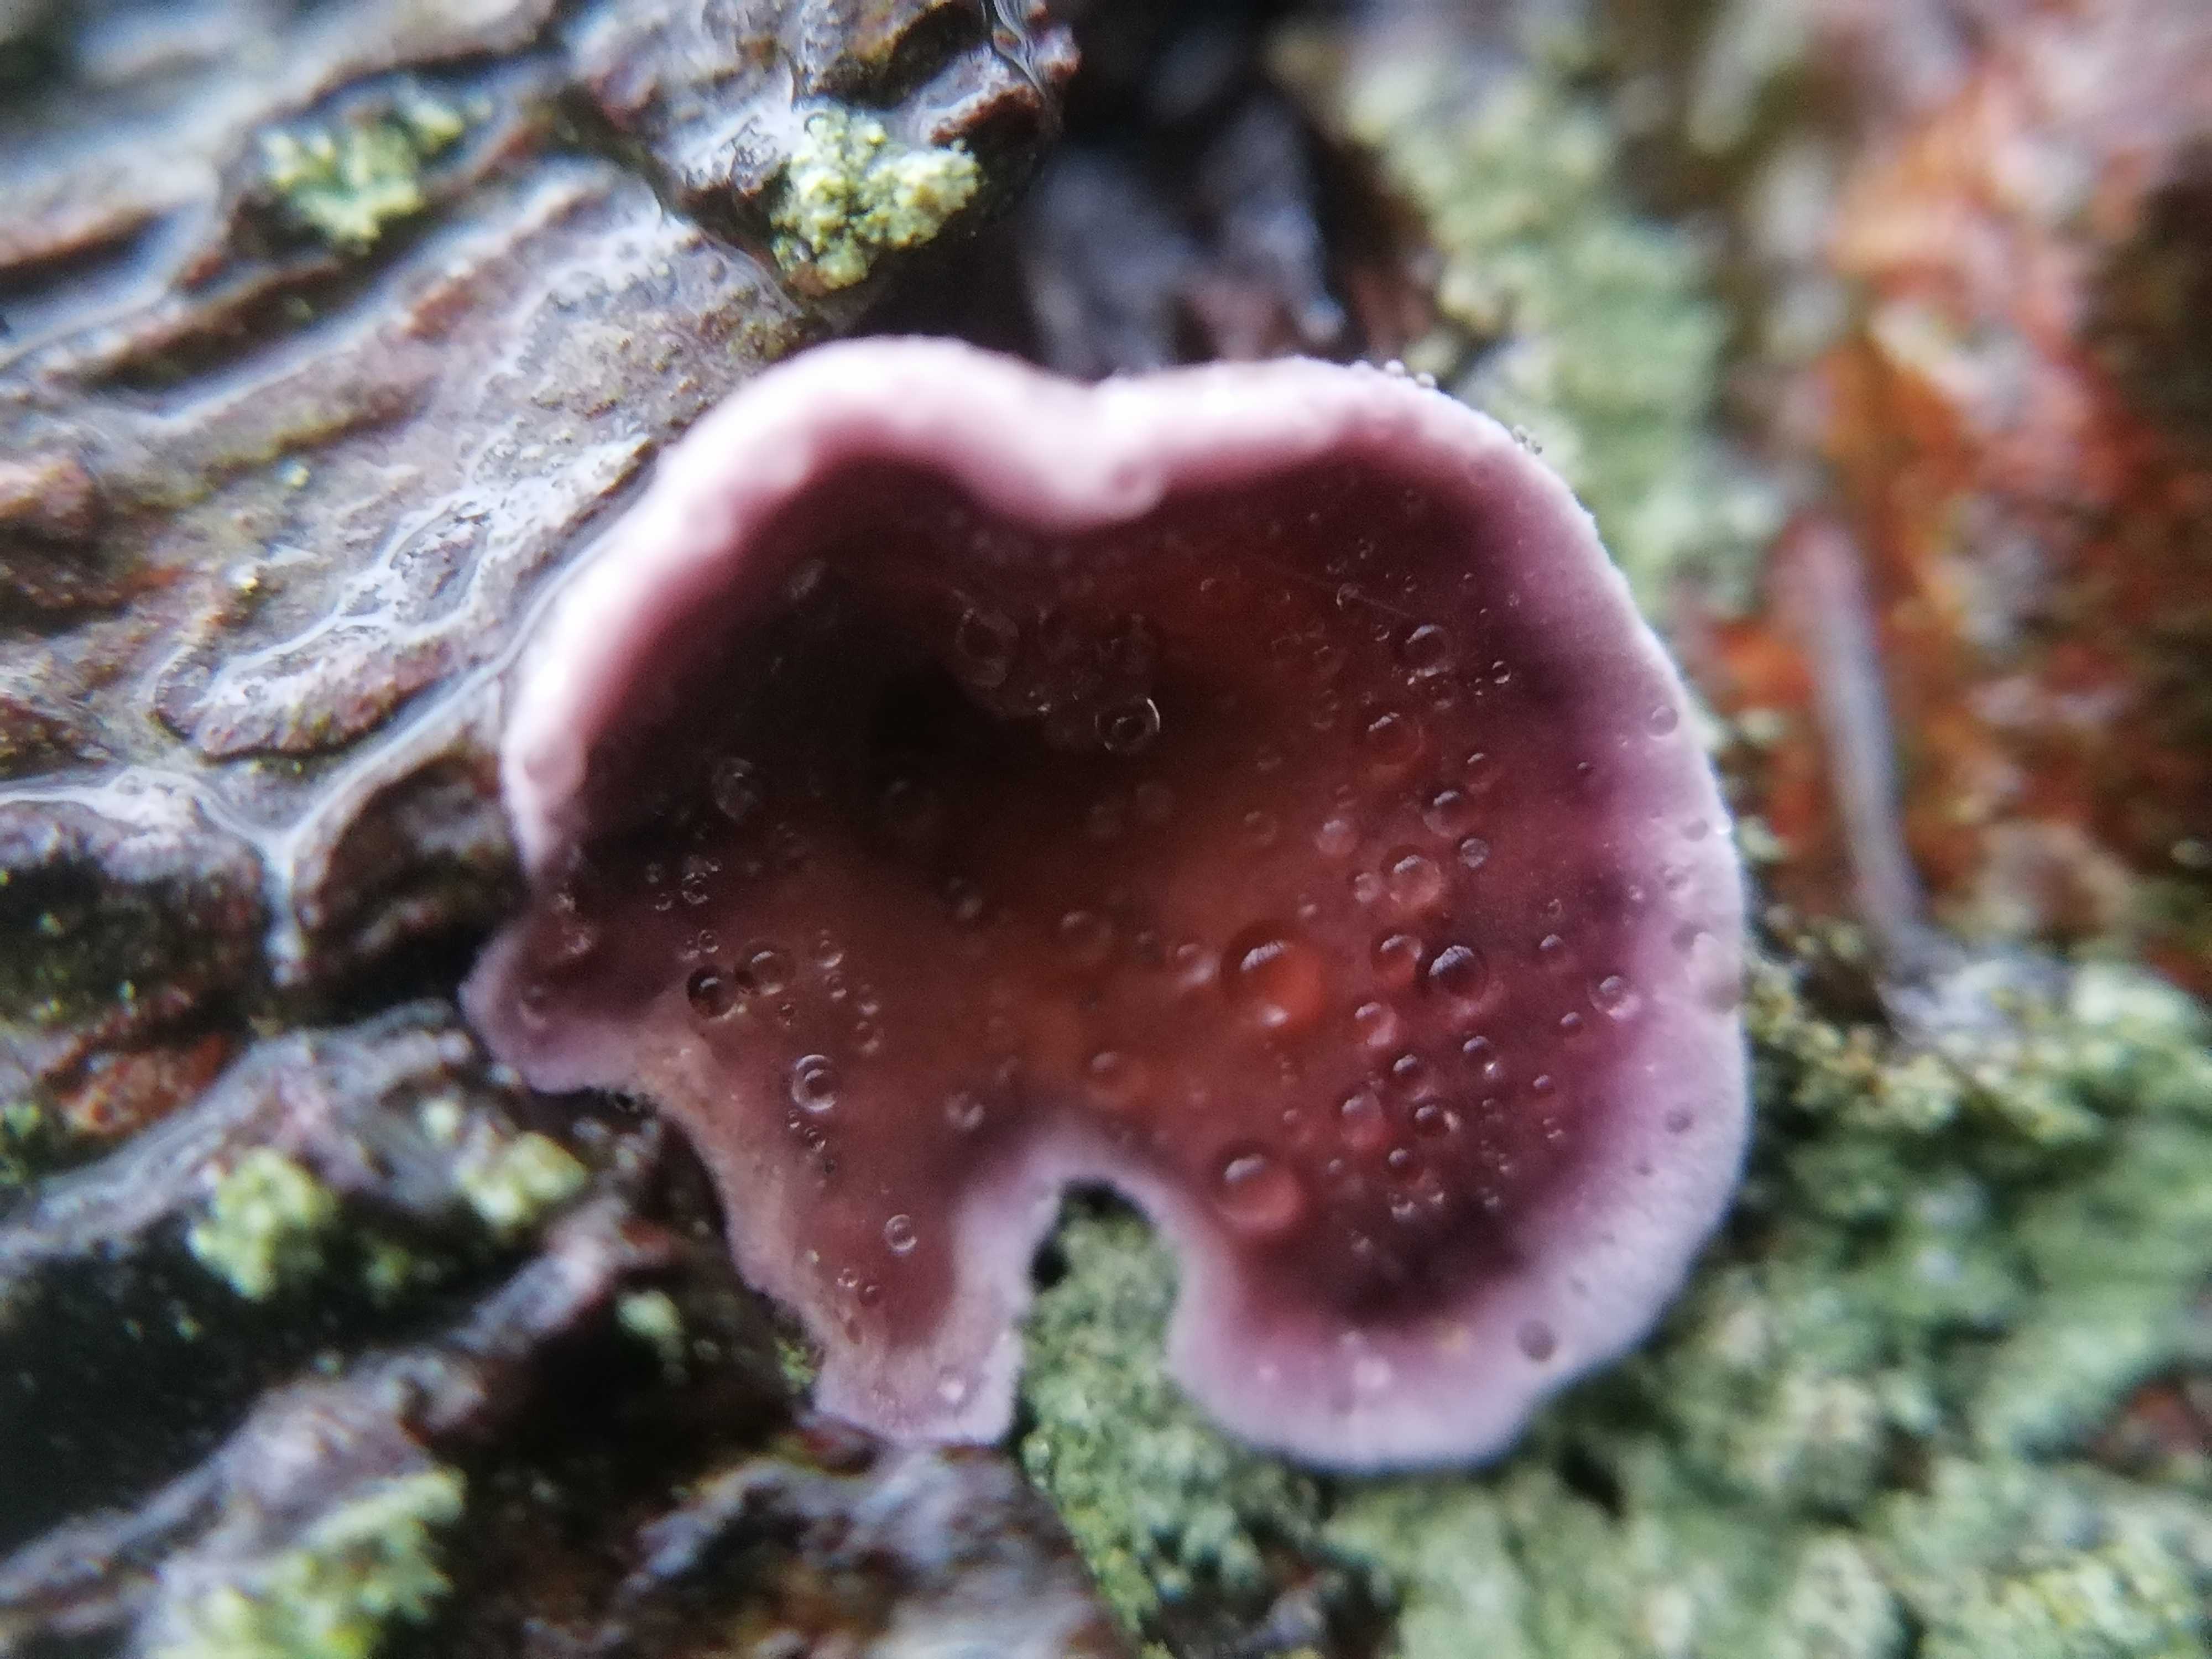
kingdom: Fungi
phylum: Basidiomycota
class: Agaricomycetes
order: Agaricales
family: Cyphellaceae
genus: Chondrostereum
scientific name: Chondrostereum purpureum
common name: purpurlædersvamp
